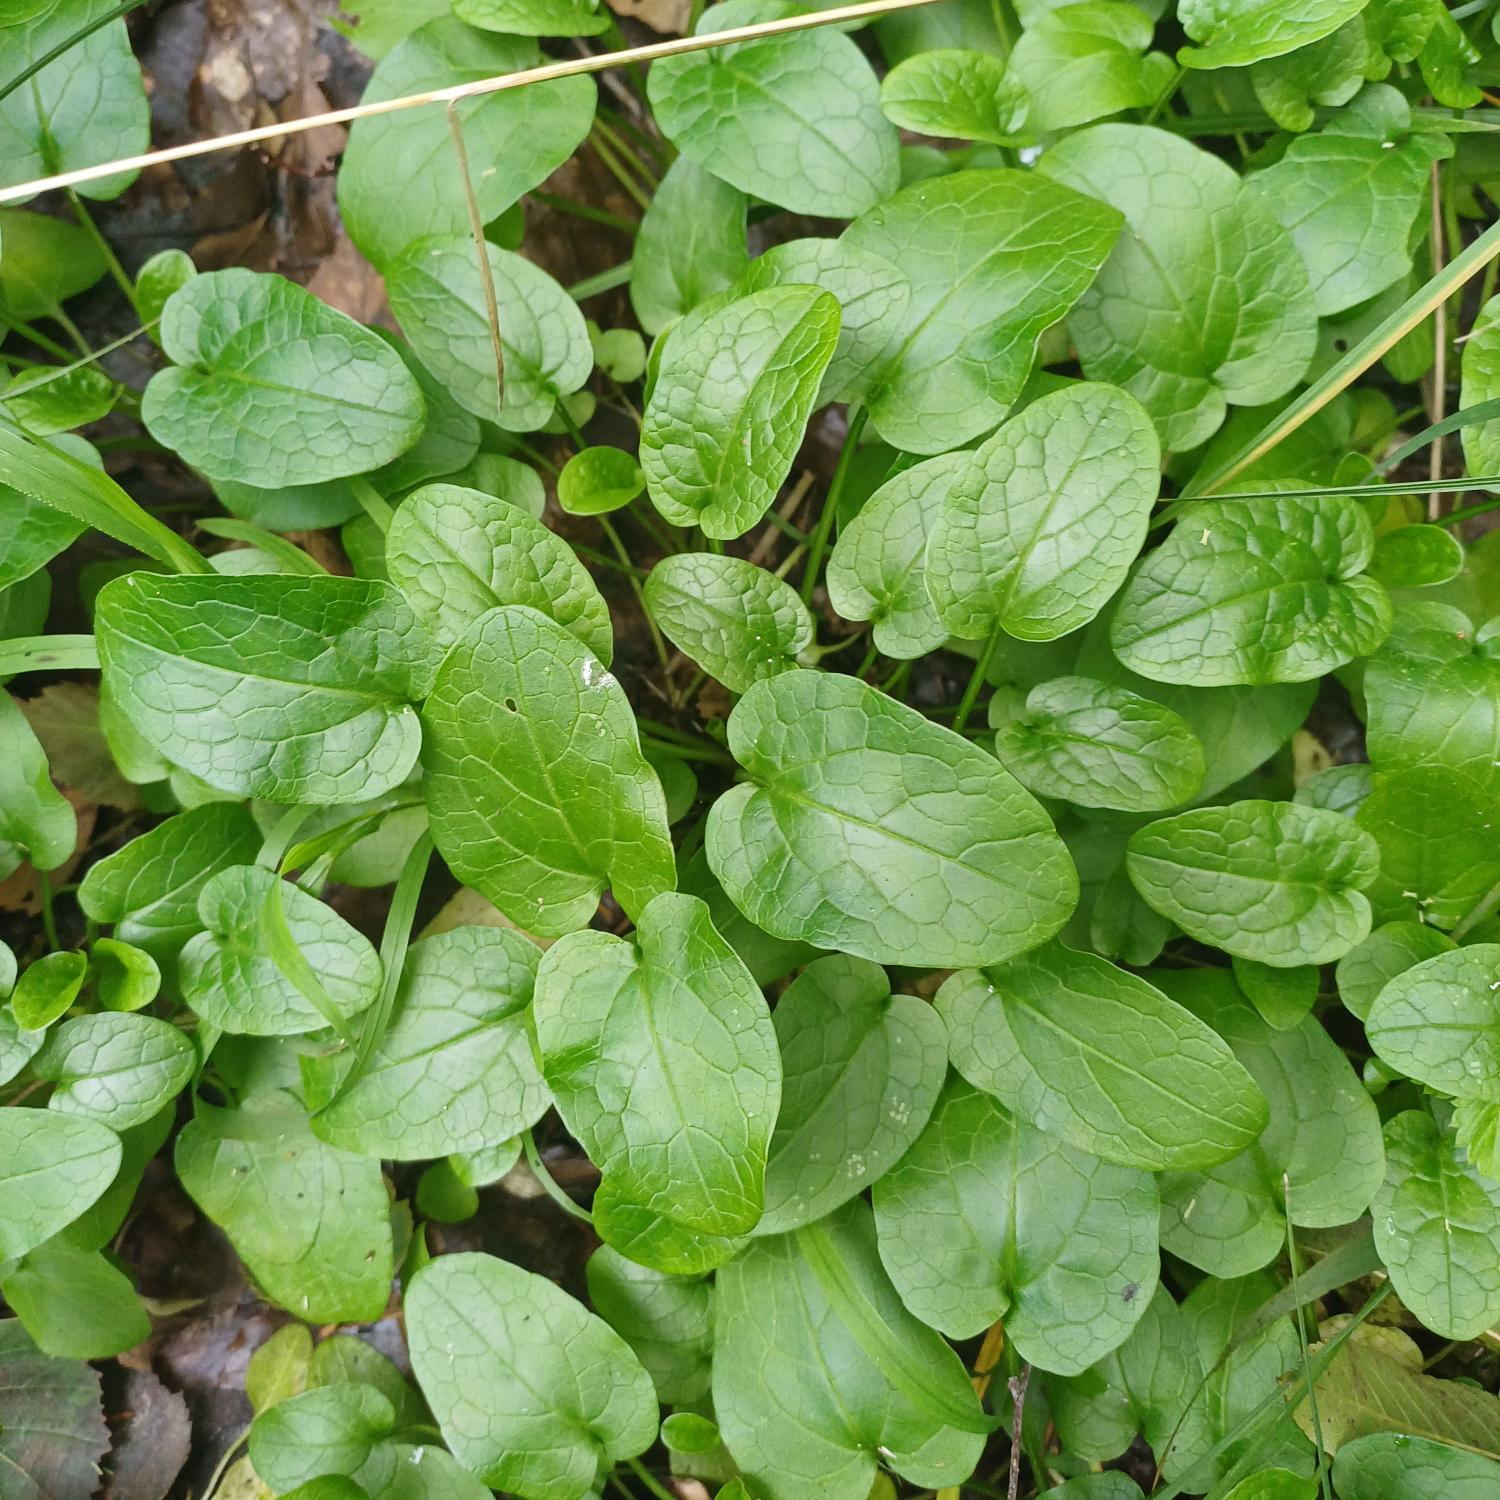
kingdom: Plantae
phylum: Tracheophyta
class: Magnoliopsida
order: Dipsacales
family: Caprifoliaceae
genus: Valeriana
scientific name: Valeriana dioica
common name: Tvebo baldrian
